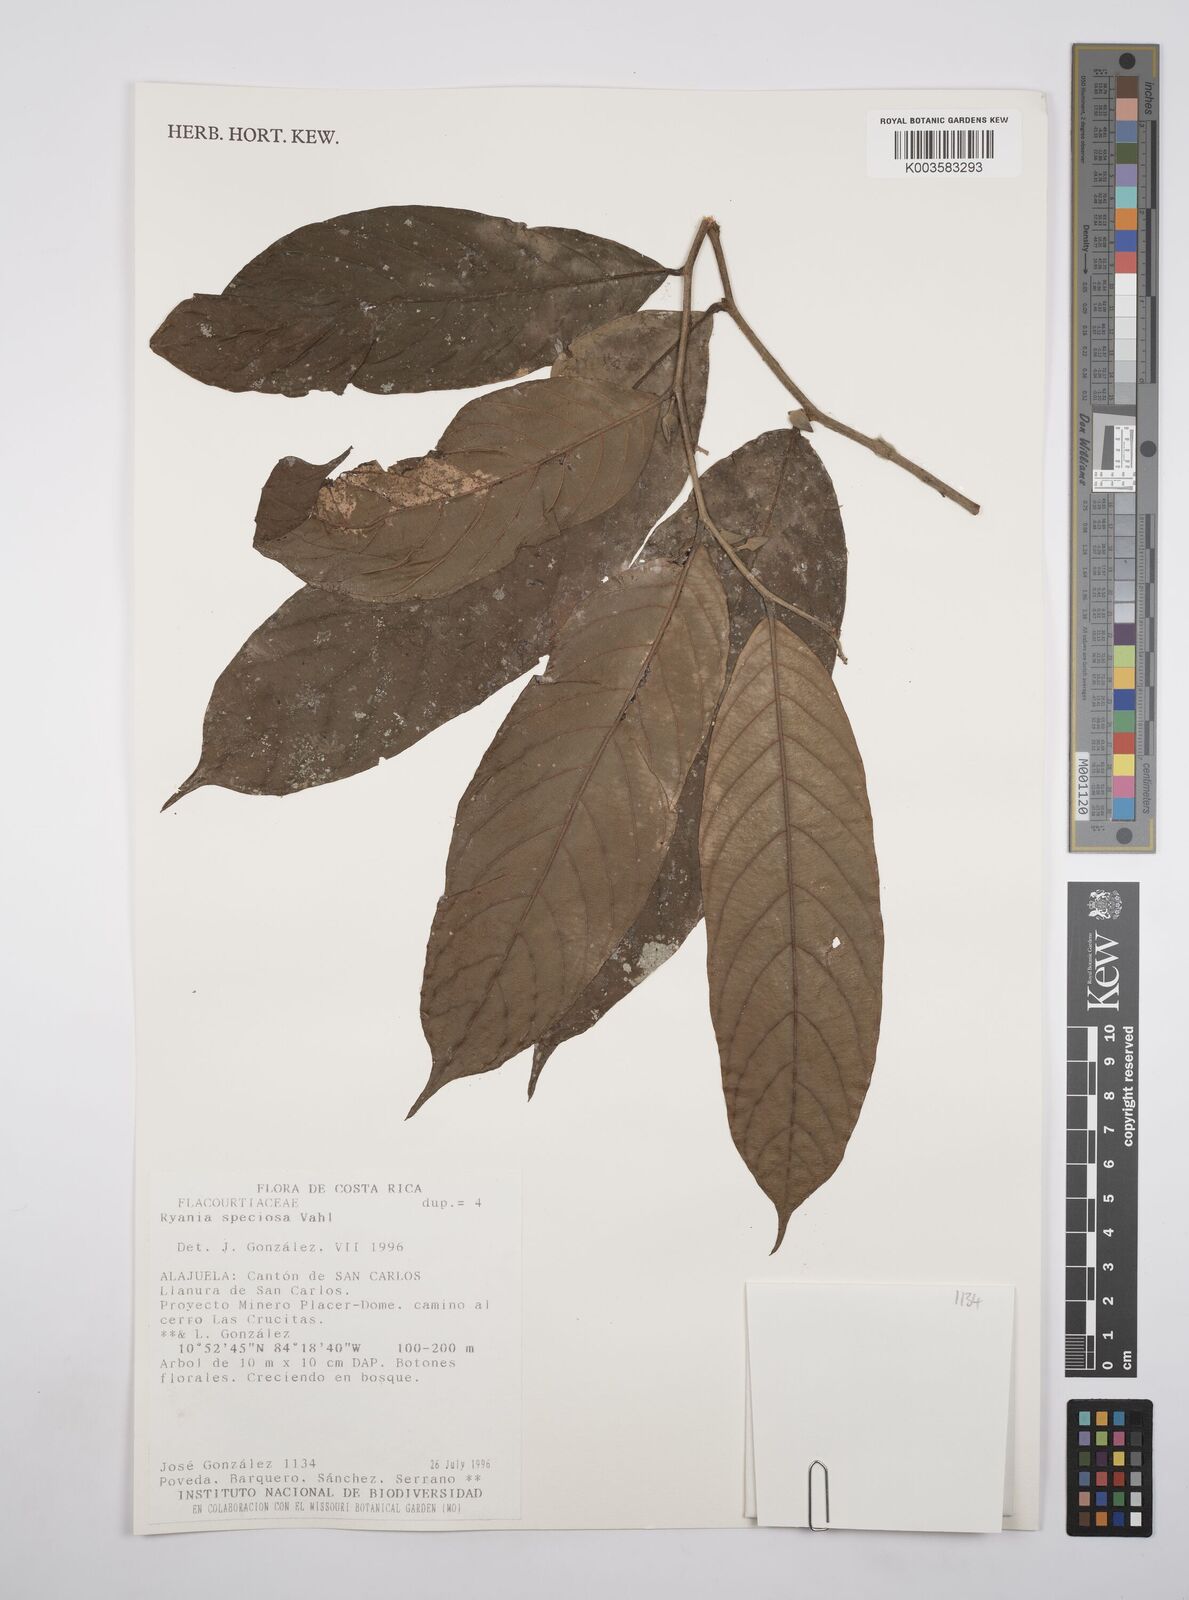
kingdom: Plantae
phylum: Tracheophyta
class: Magnoliopsida
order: Malpighiales
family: Salicaceae
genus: Ryania
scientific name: Ryania speciosa
